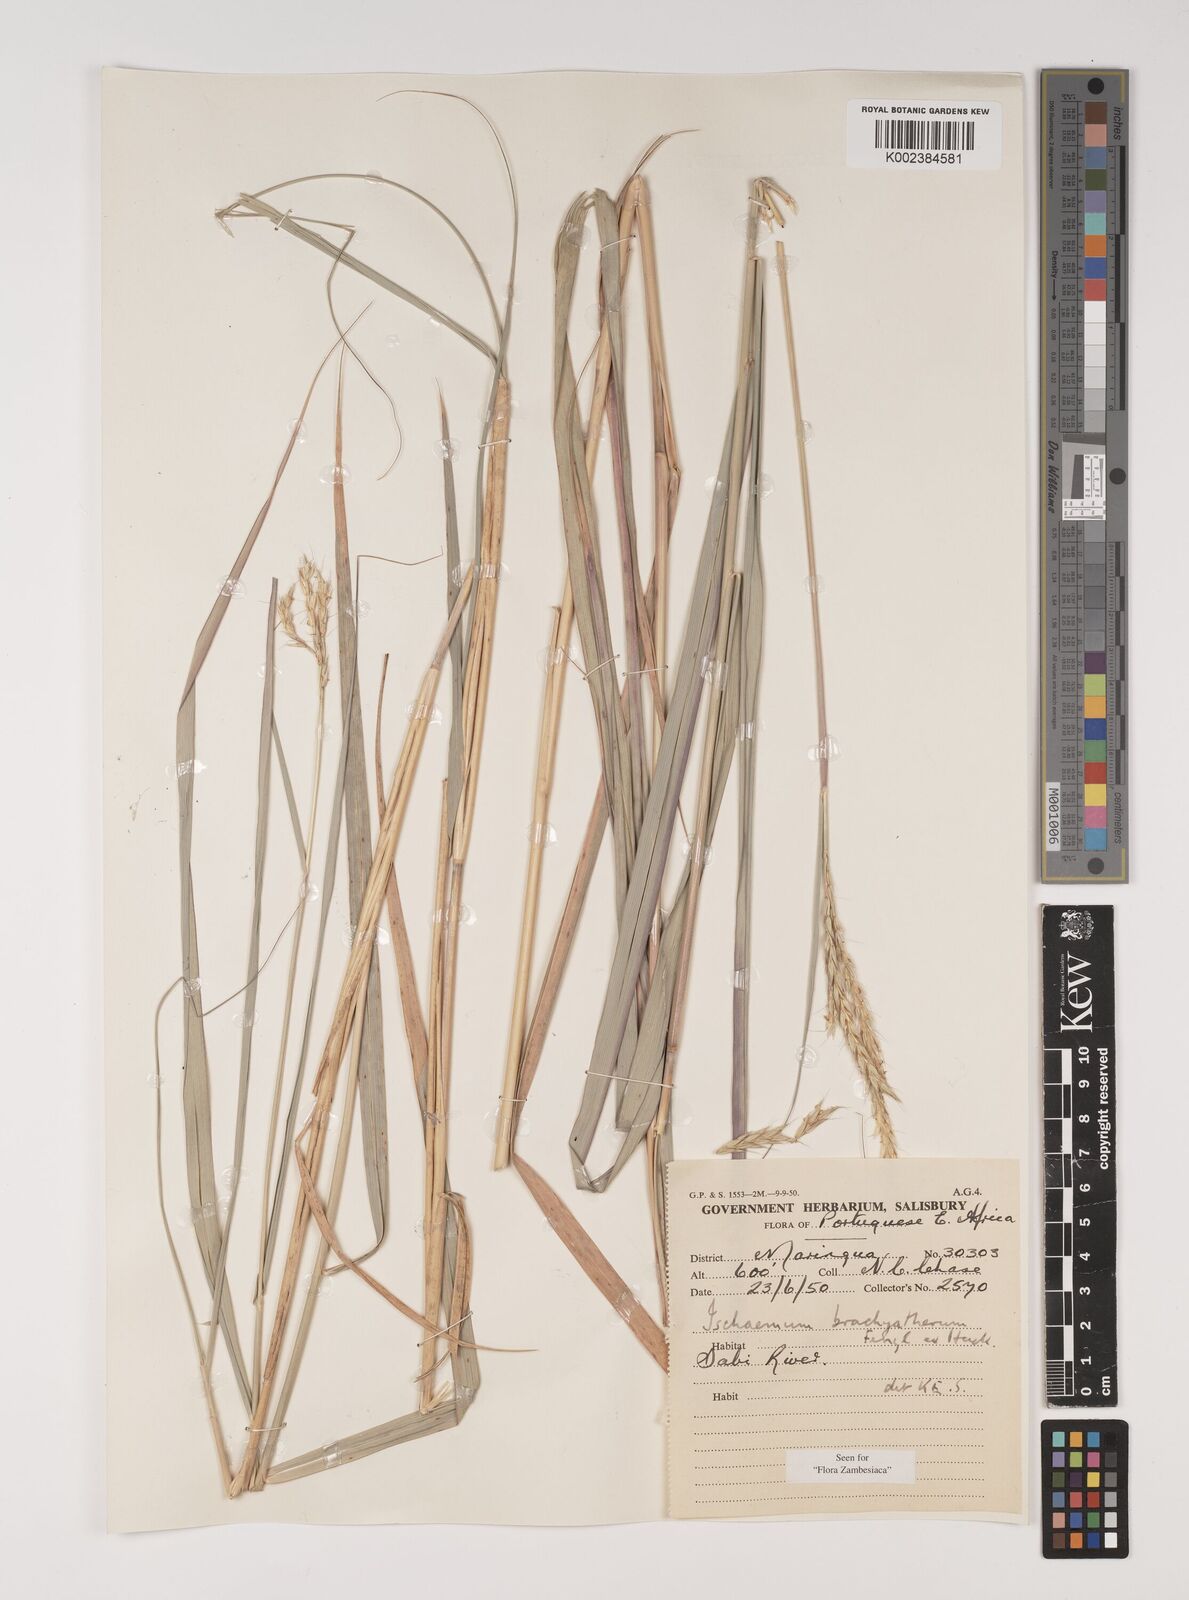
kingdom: Plantae
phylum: Tracheophyta
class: Liliopsida
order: Poales
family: Poaceae
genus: Ischaemum
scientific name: Ischaemum afrum
